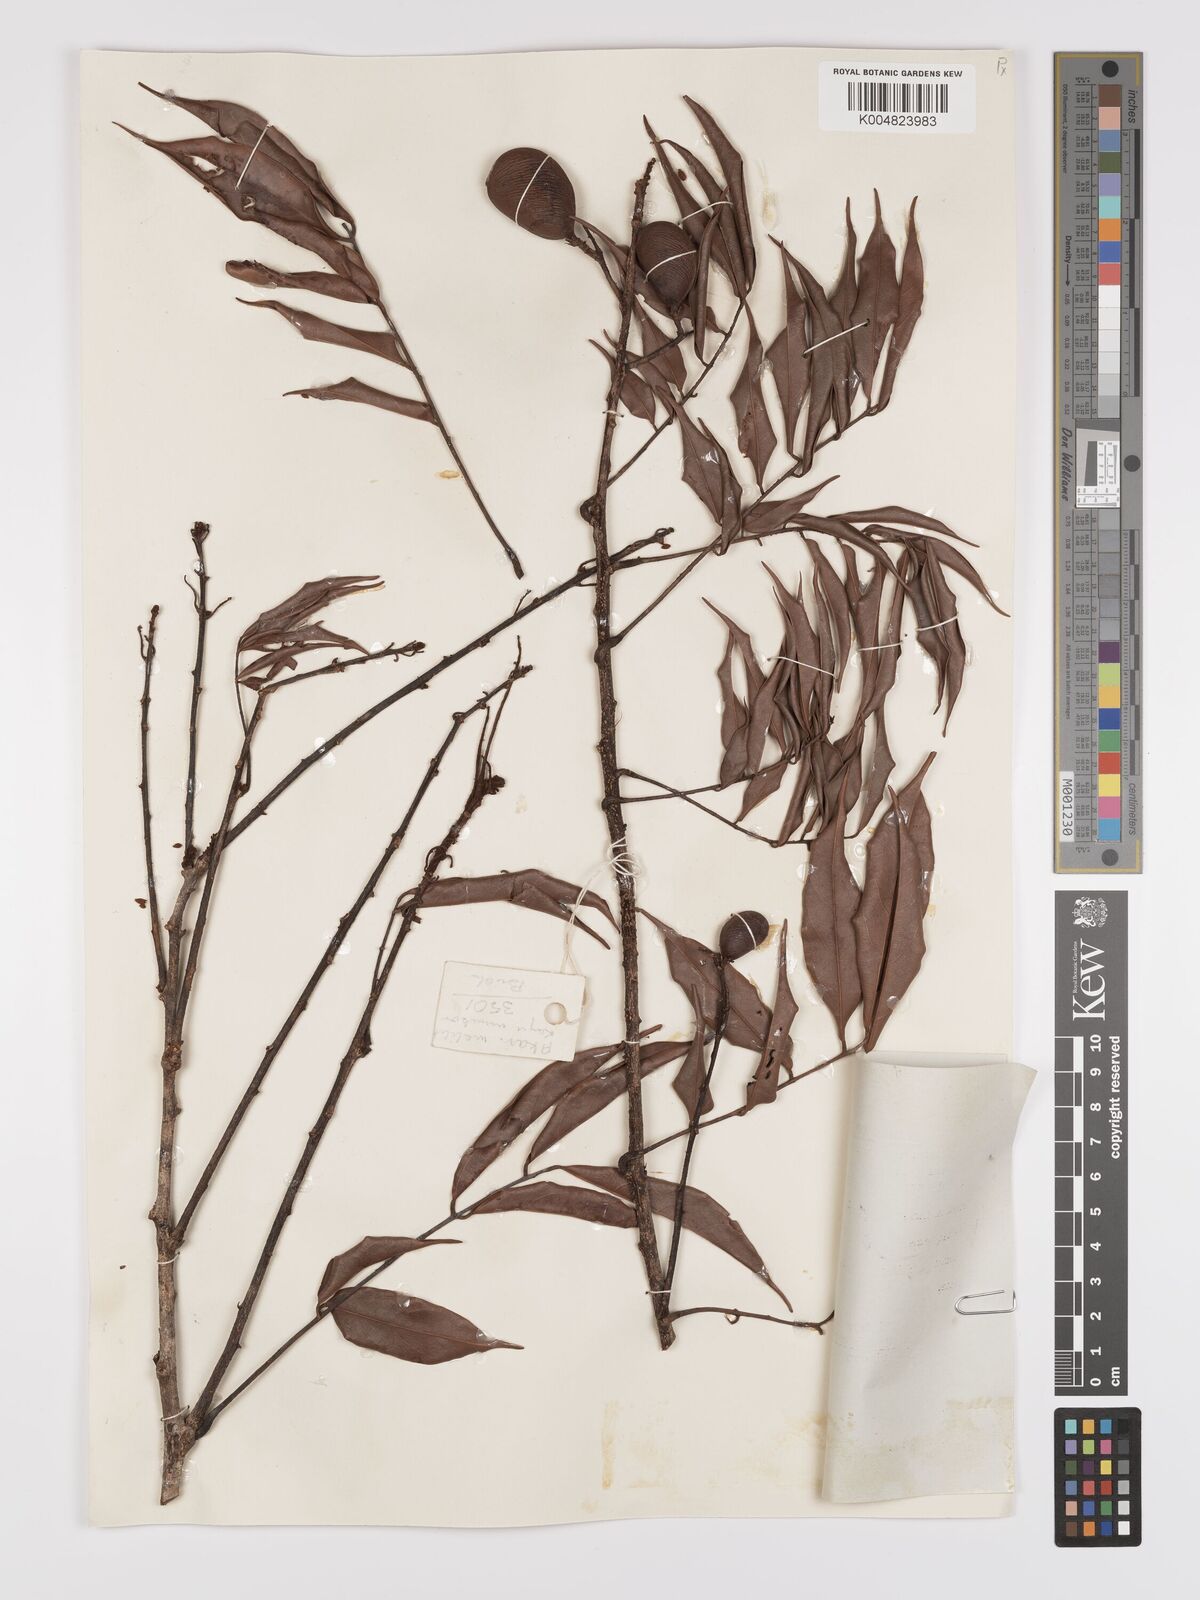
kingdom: Plantae
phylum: Tracheophyta
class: Magnoliopsida
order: Oxalidales
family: Connaraceae
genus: Connarus
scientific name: Connarus odoratus
